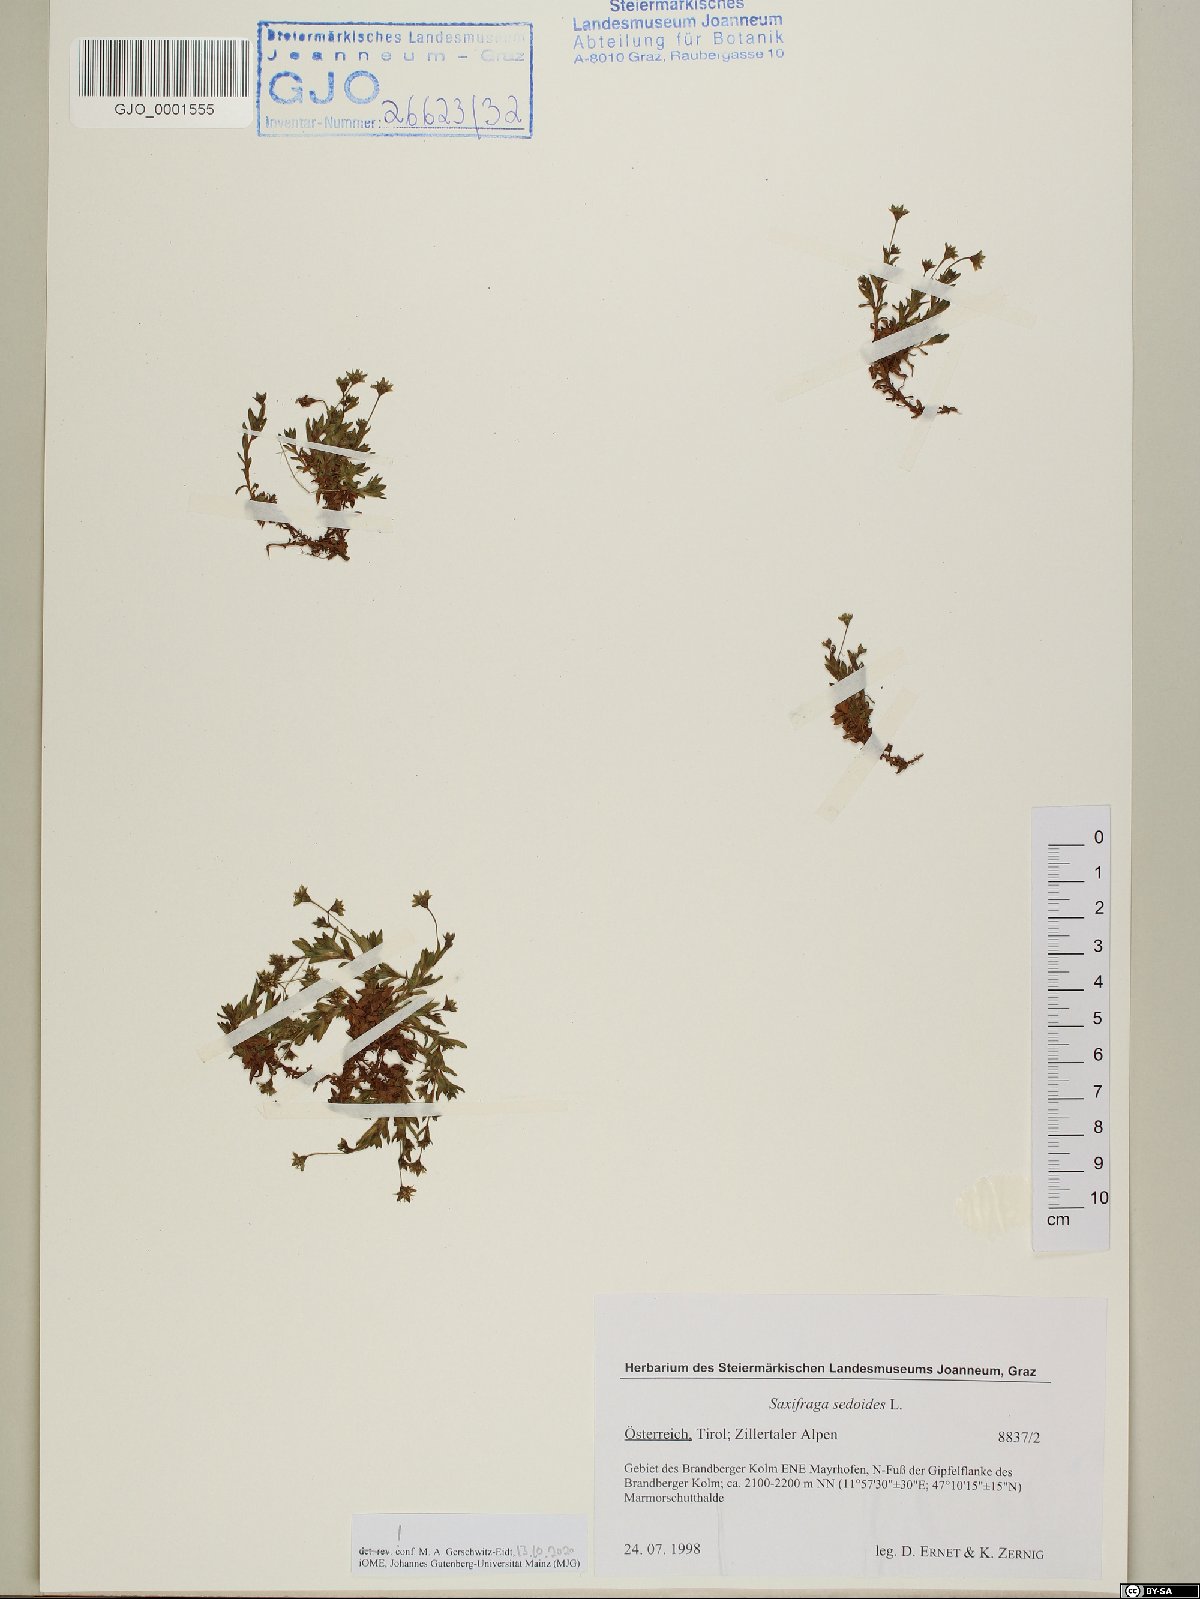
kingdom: Plantae
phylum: Tracheophyta
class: Magnoliopsida
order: Saxifragales
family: Saxifragaceae
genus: Saxifraga
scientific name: Saxifraga sedoides
